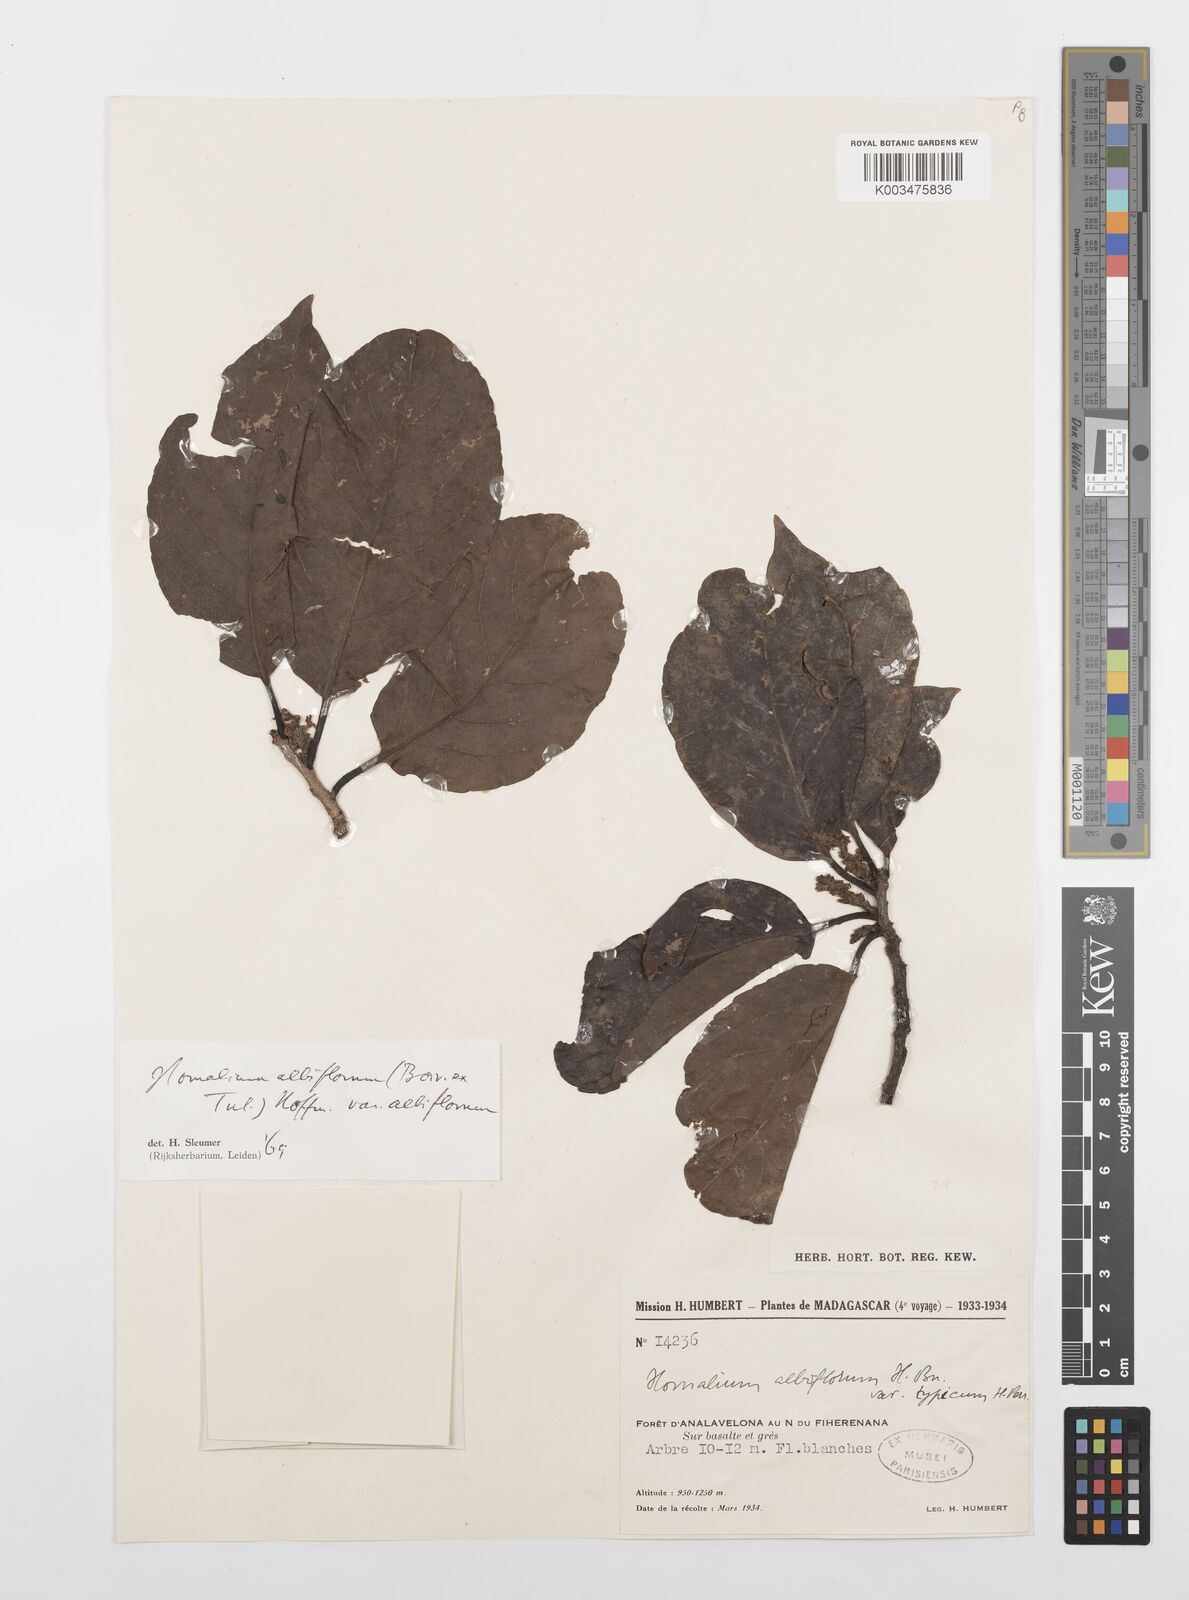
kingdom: Plantae
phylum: Tracheophyta
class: Magnoliopsida
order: Malpighiales
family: Salicaceae
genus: Homalium
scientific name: Homalium albiflorum
